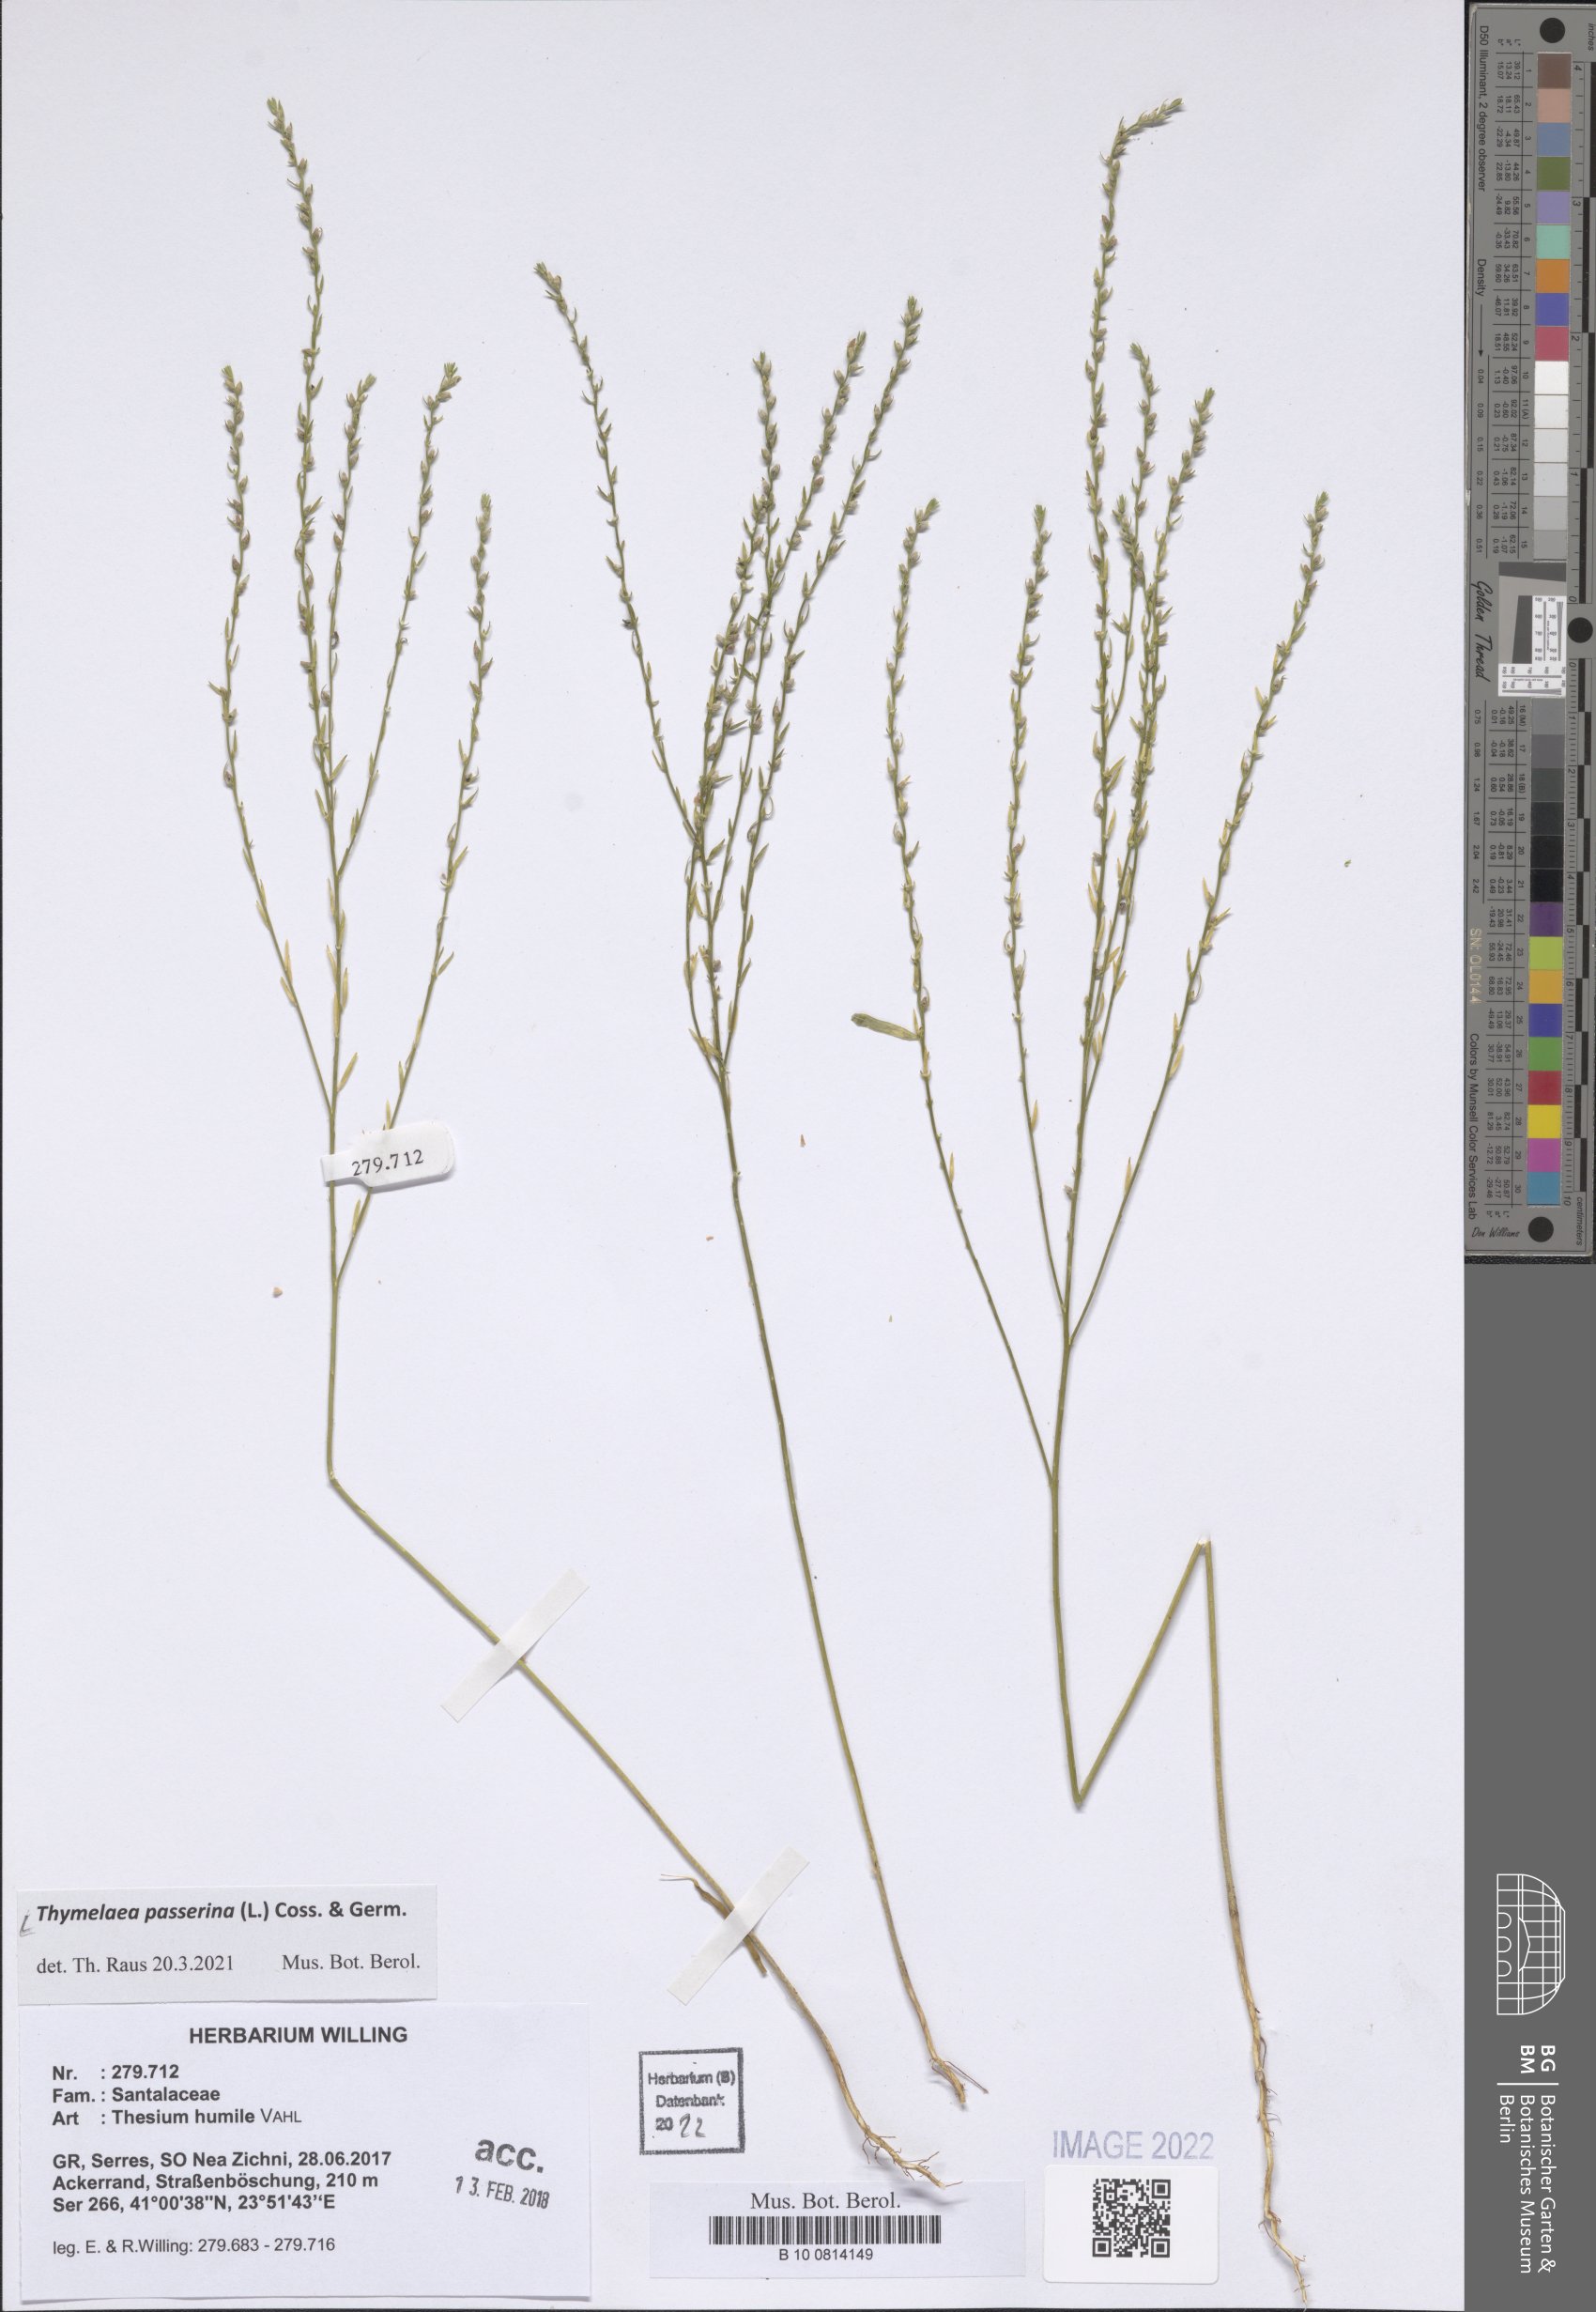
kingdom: Plantae
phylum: Tracheophyta
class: Magnoliopsida
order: Malvales
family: Thymelaeaceae
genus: Thymelaea
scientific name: Thymelaea passerina
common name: Annual thymelaea
